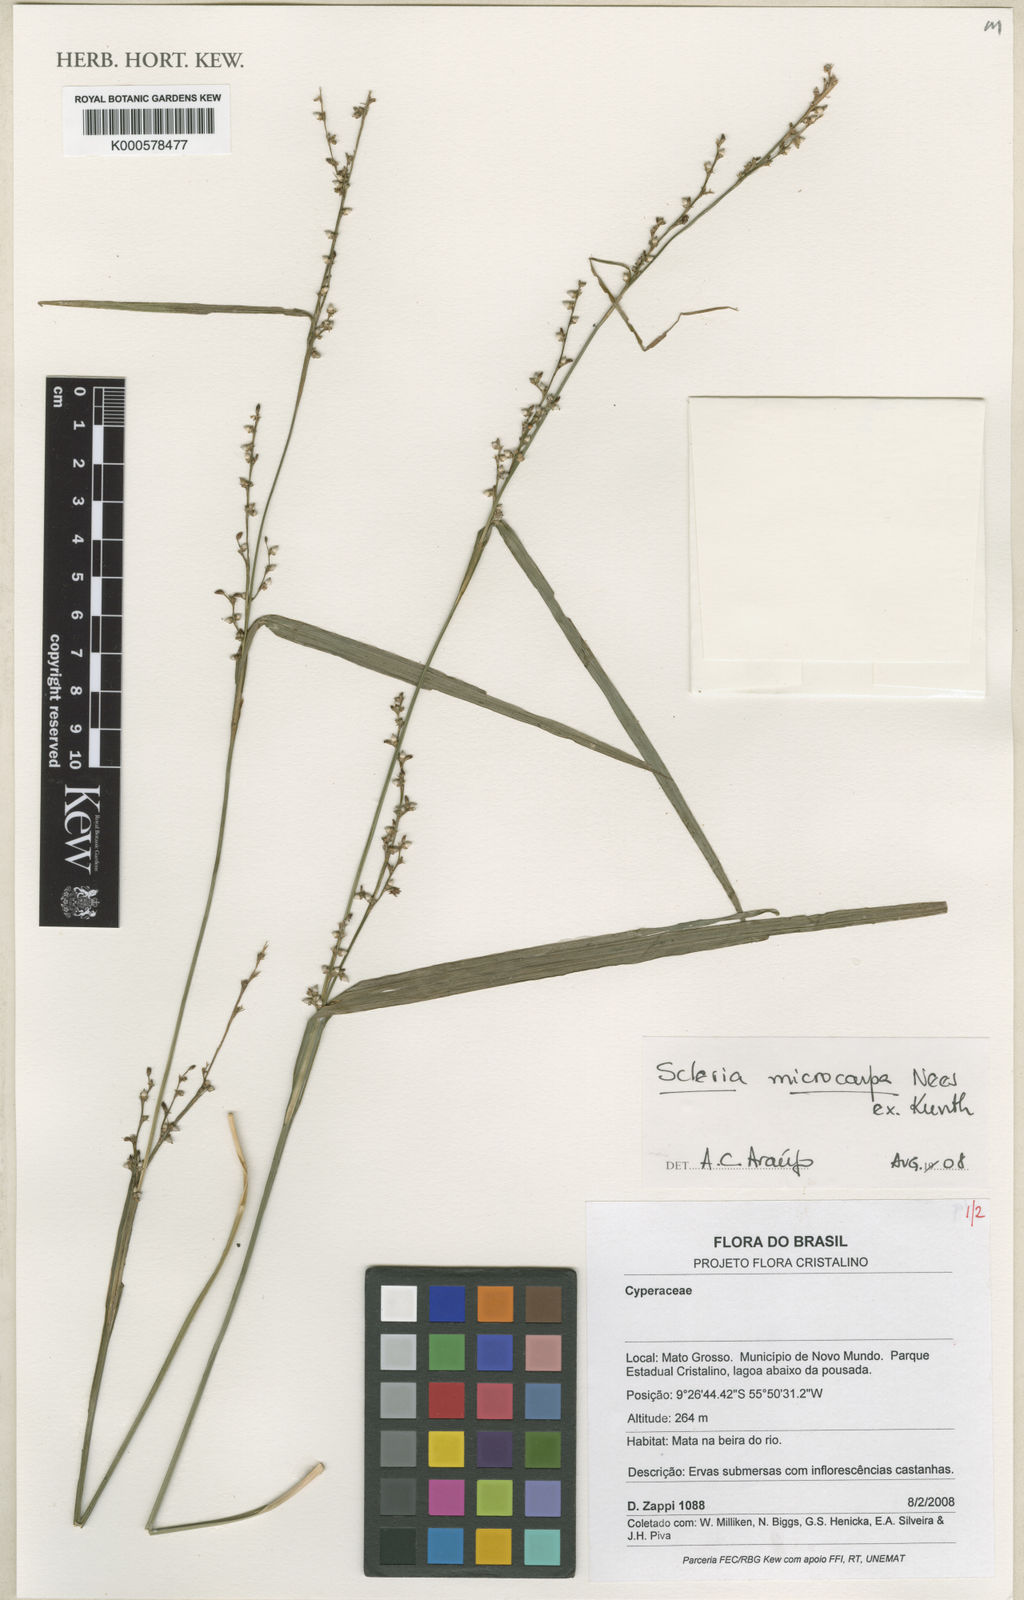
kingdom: Plantae
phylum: Tracheophyta
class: Liliopsida
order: Poales
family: Cyperaceae
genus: Scleria
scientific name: Scleria microcarpa
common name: Tropical nutrush
